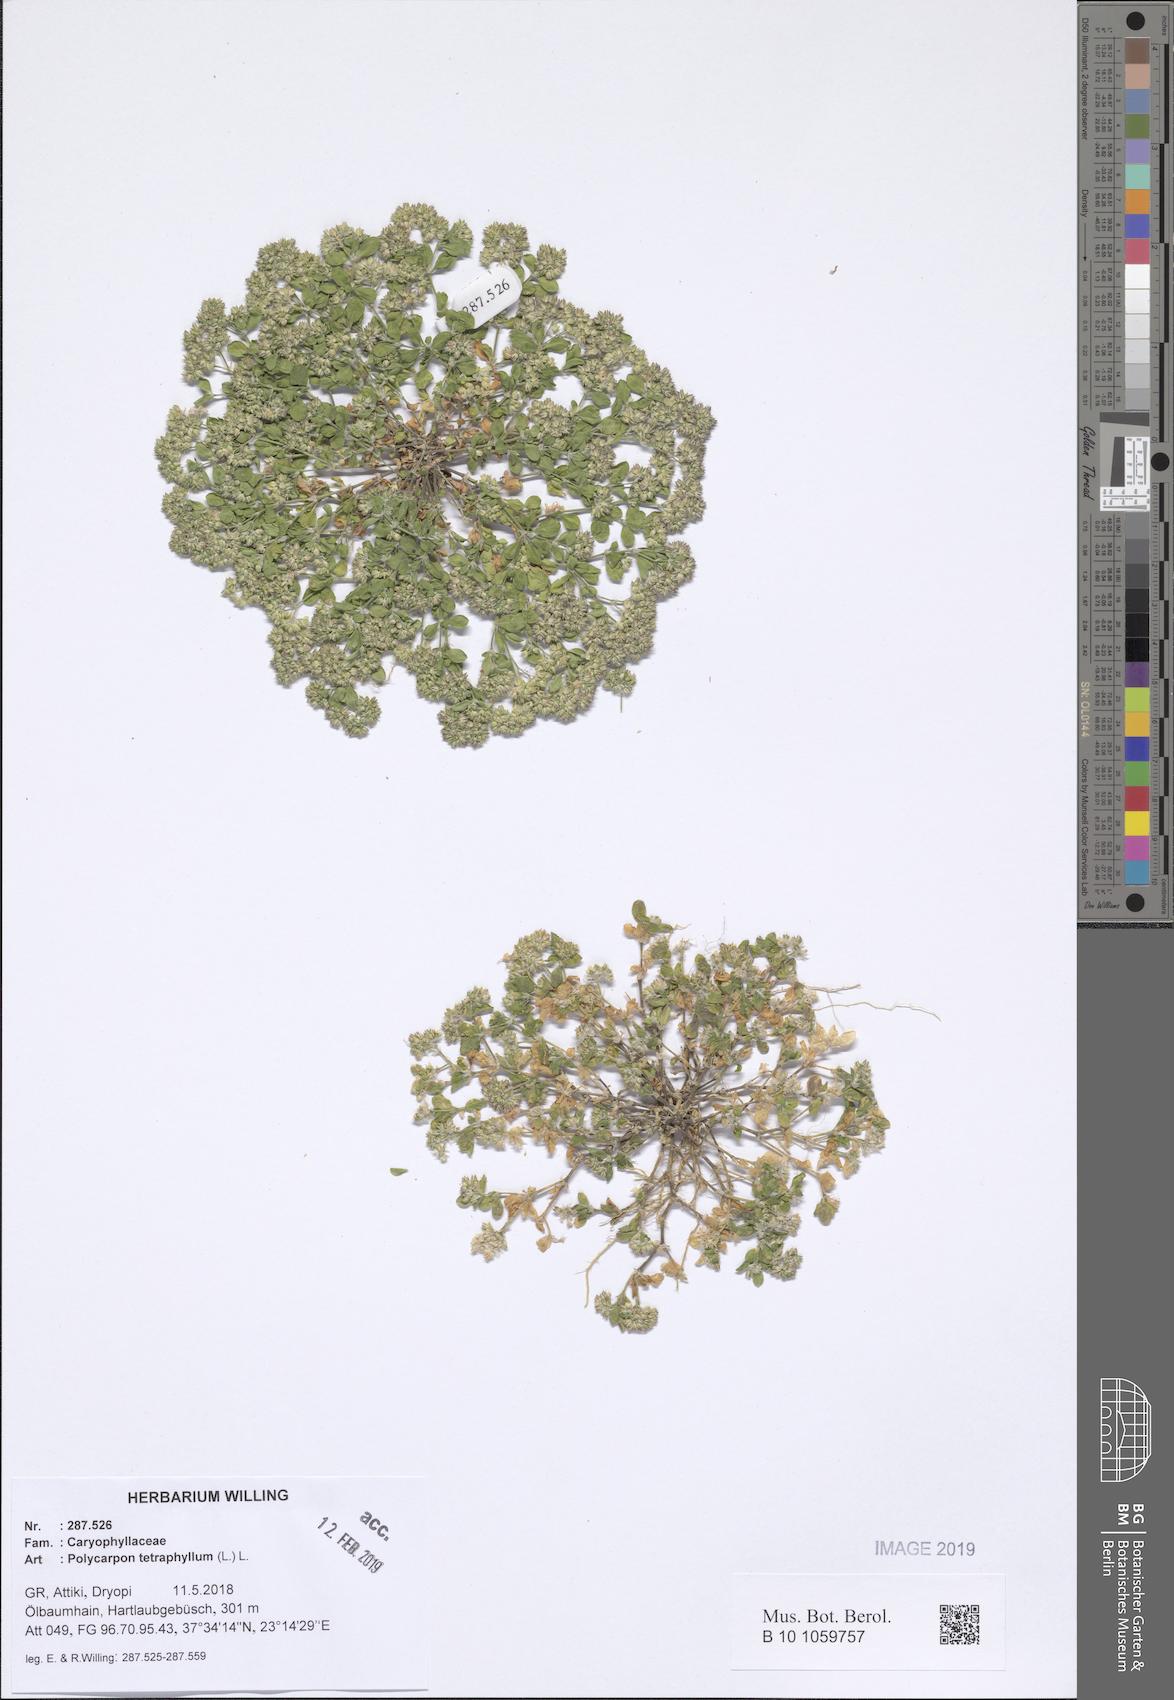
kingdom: Plantae
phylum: Tracheophyta
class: Magnoliopsida
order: Caryophyllales
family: Caryophyllaceae
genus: Polycarpon
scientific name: Polycarpon tetraphyllum
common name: Four-leaved all-seed
